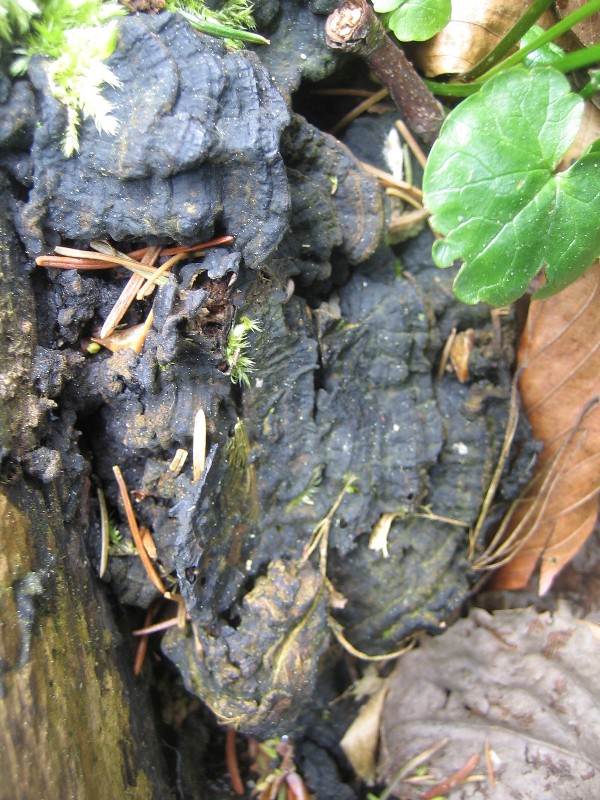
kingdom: Fungi
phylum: Basidiomycota
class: Agaricomycetes
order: Polyporales
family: Meripilaceae
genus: Rigidoporus
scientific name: Rigidoporus sanguinolentus
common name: blod-skorpeporesvamp
